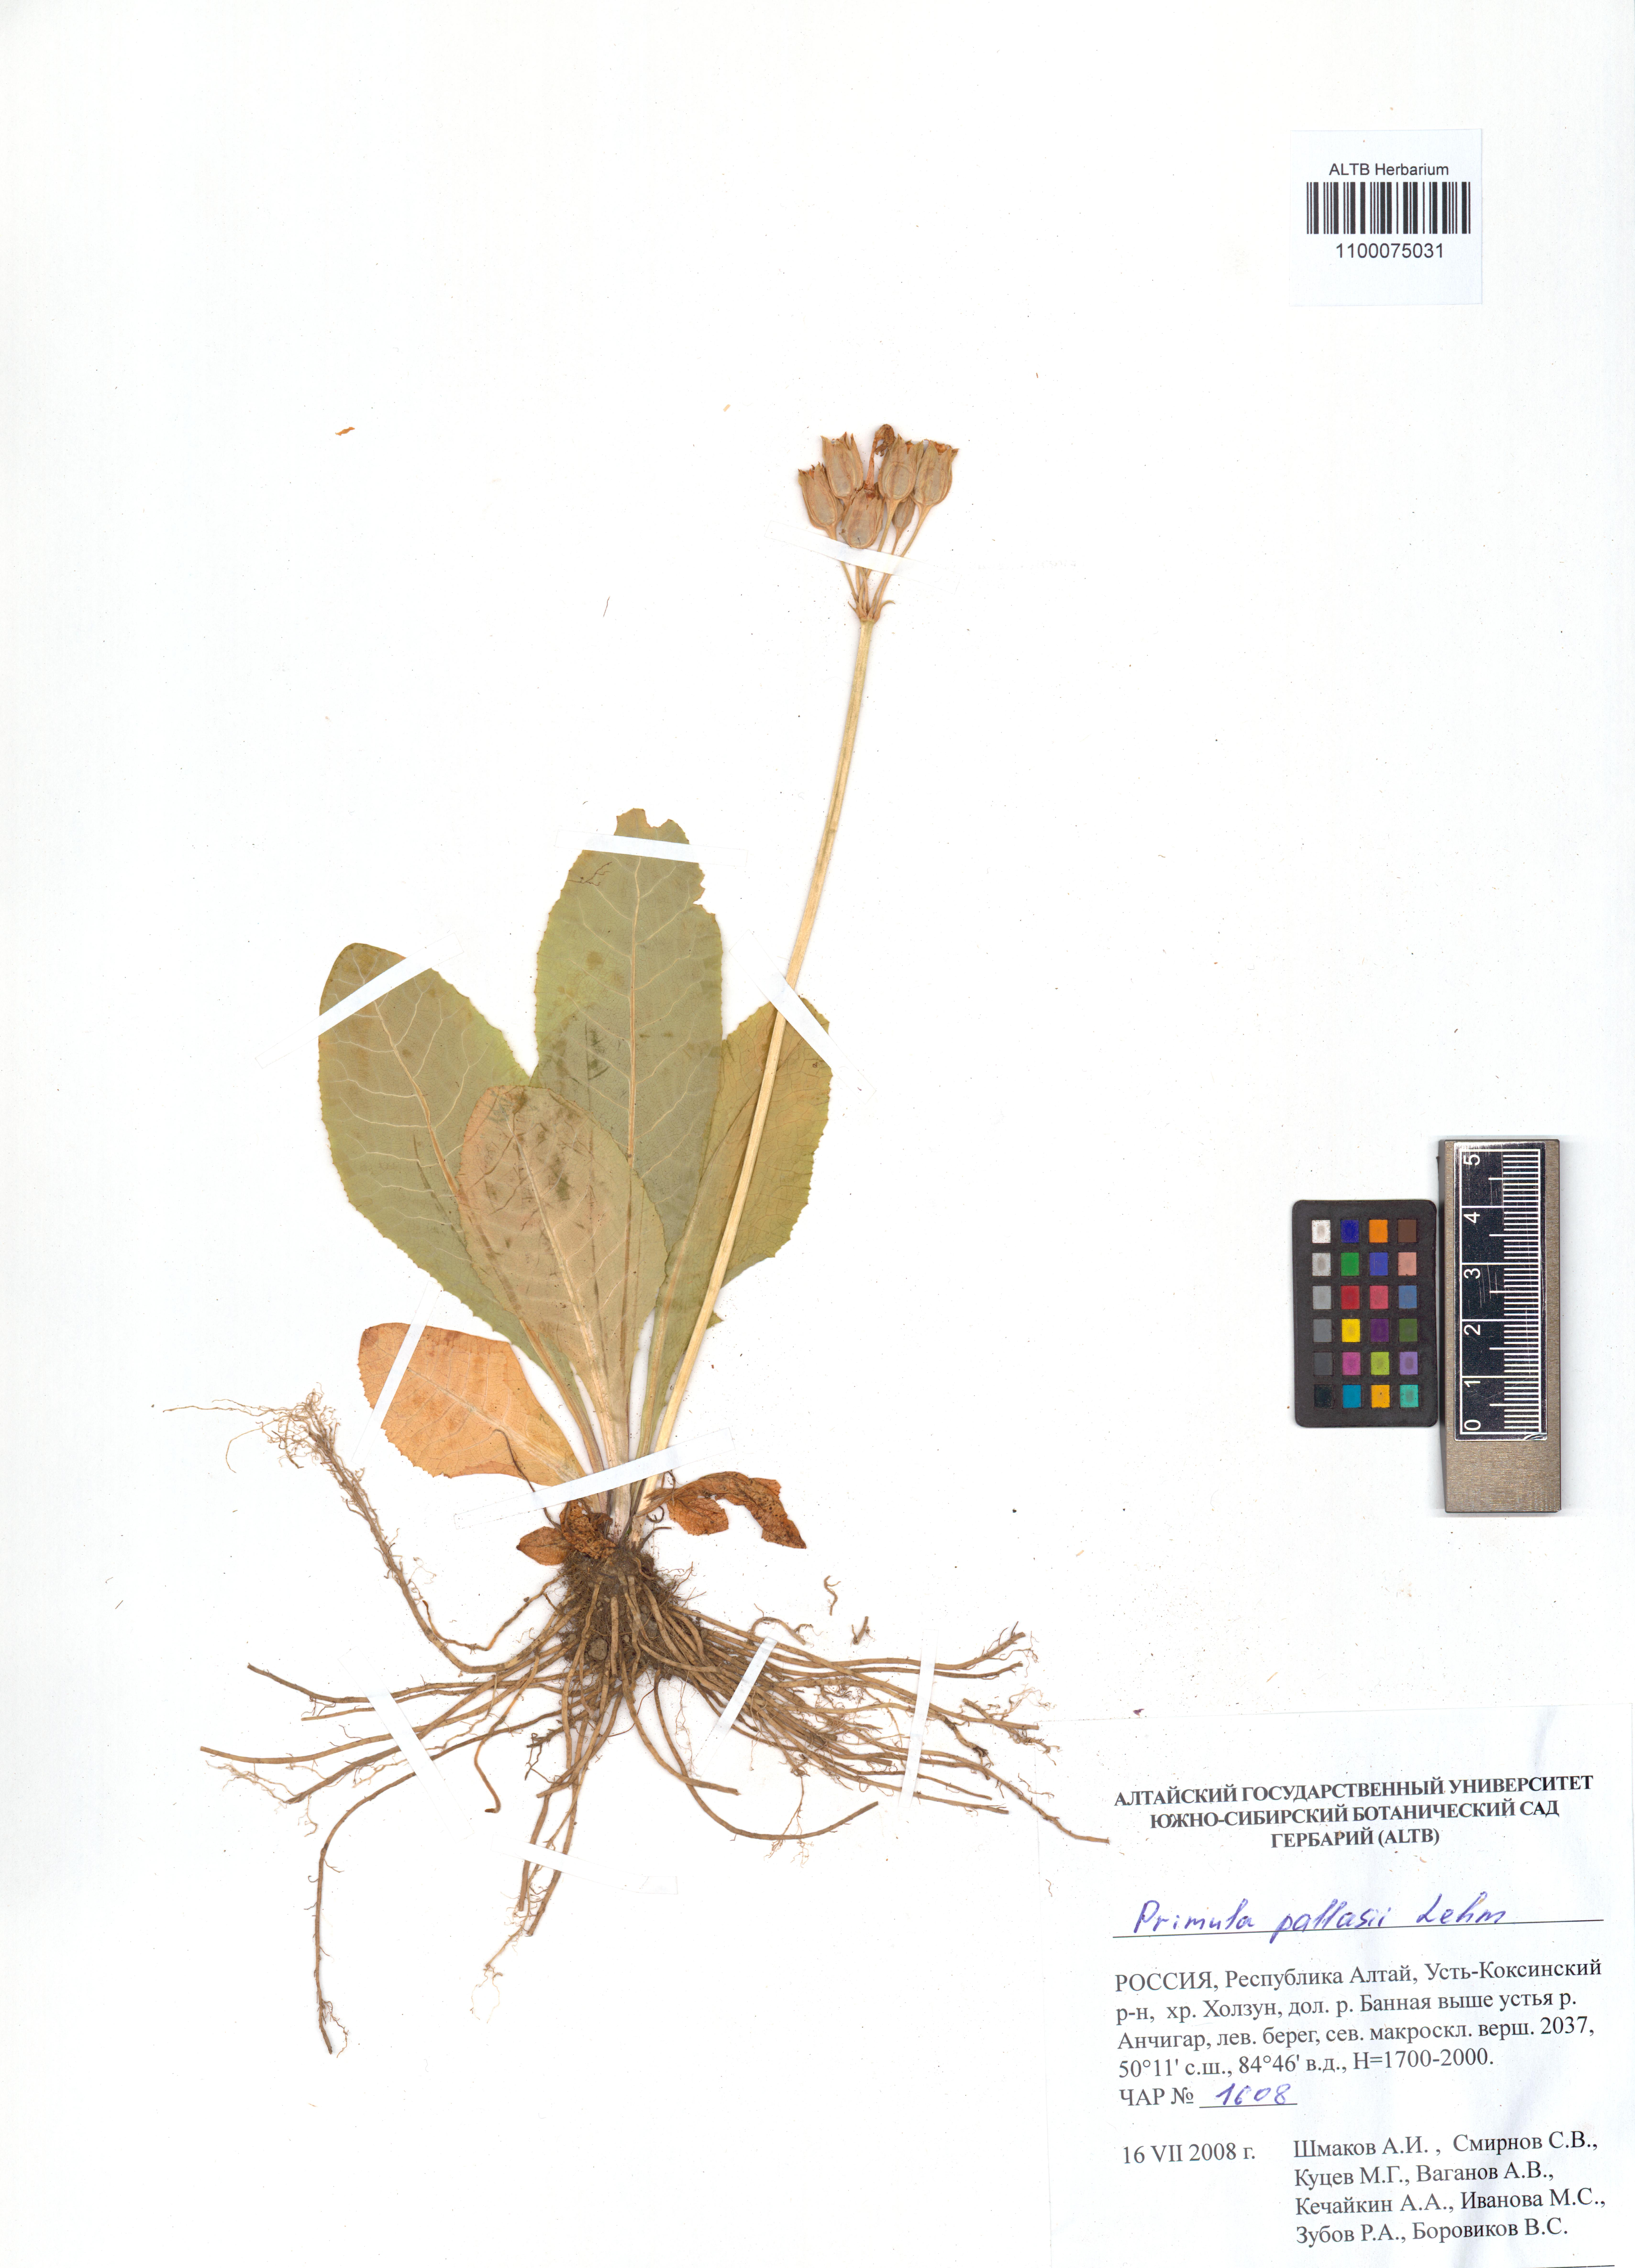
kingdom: Plantae
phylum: Tracheophyta
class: Magnoliopsida
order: Ericales
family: Primulaceae
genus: Primula
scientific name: Primula elatior
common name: Oxlip
